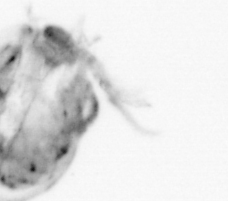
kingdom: Animalia
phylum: Chaetognatha
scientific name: Chaetognatha
